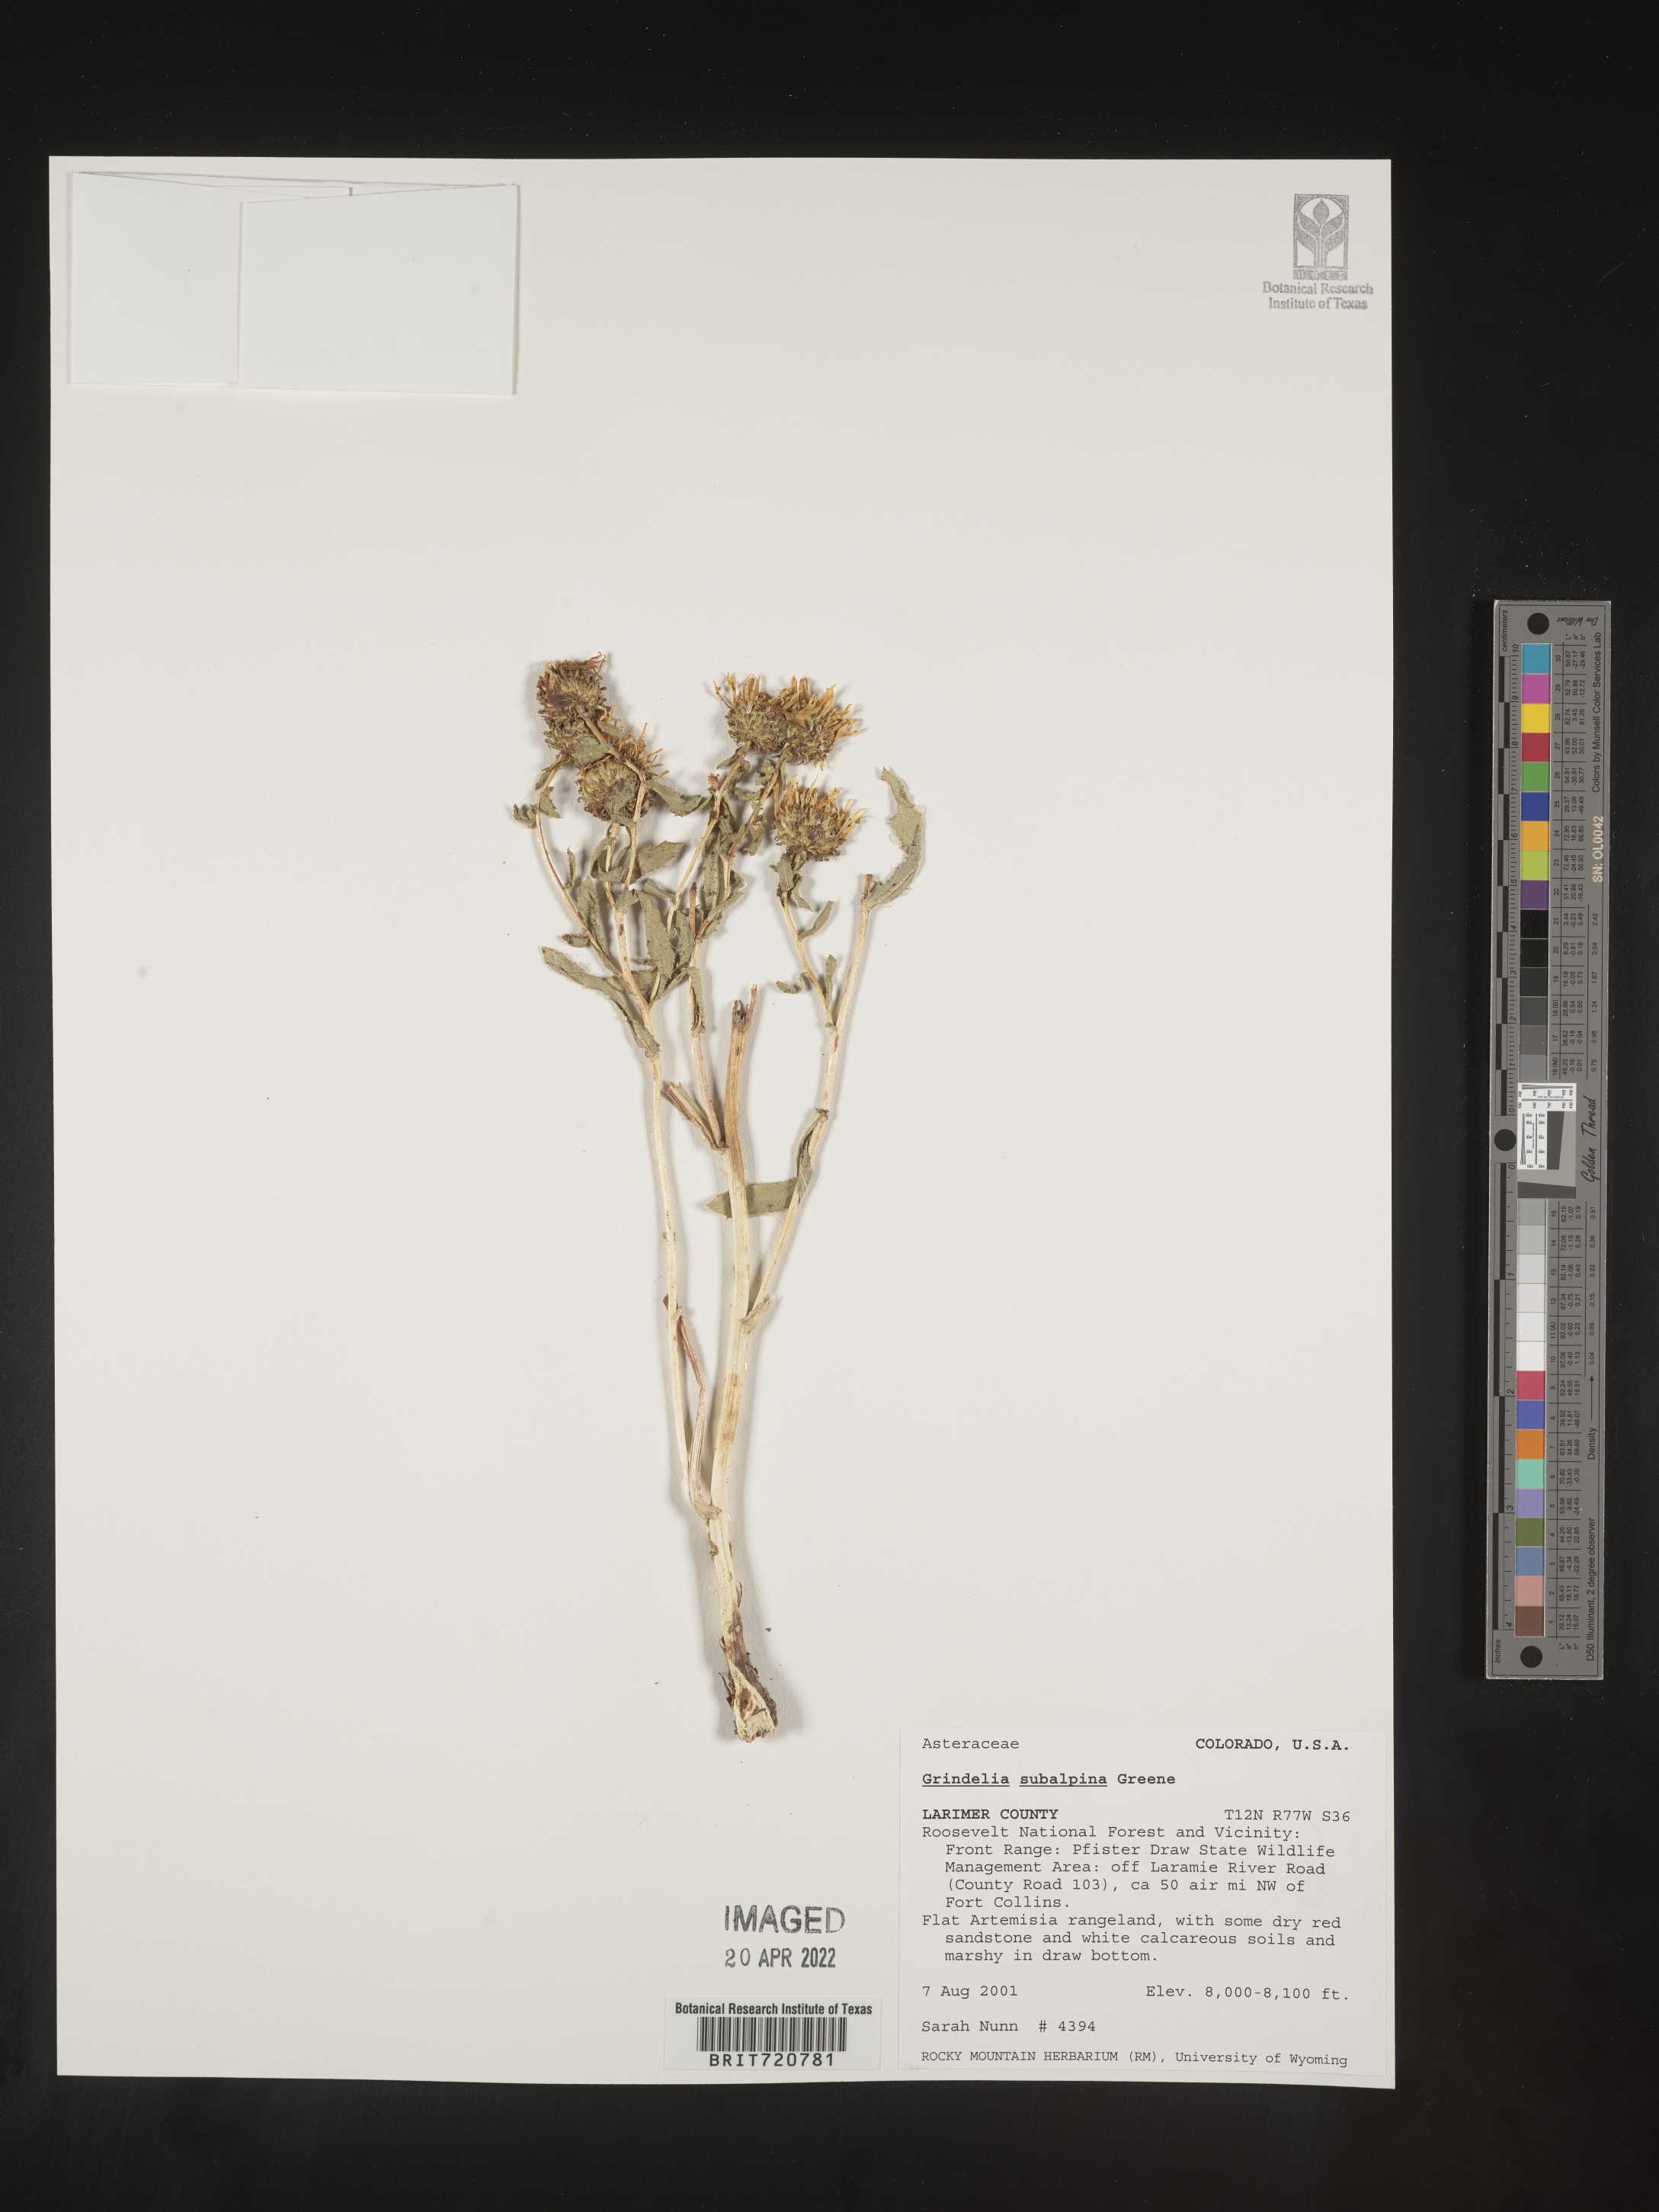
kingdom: Plantae
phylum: Tracheophyta
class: Magnoliopsida
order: Asterales
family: Asteraceae
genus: Grindelia
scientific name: Grindelia
